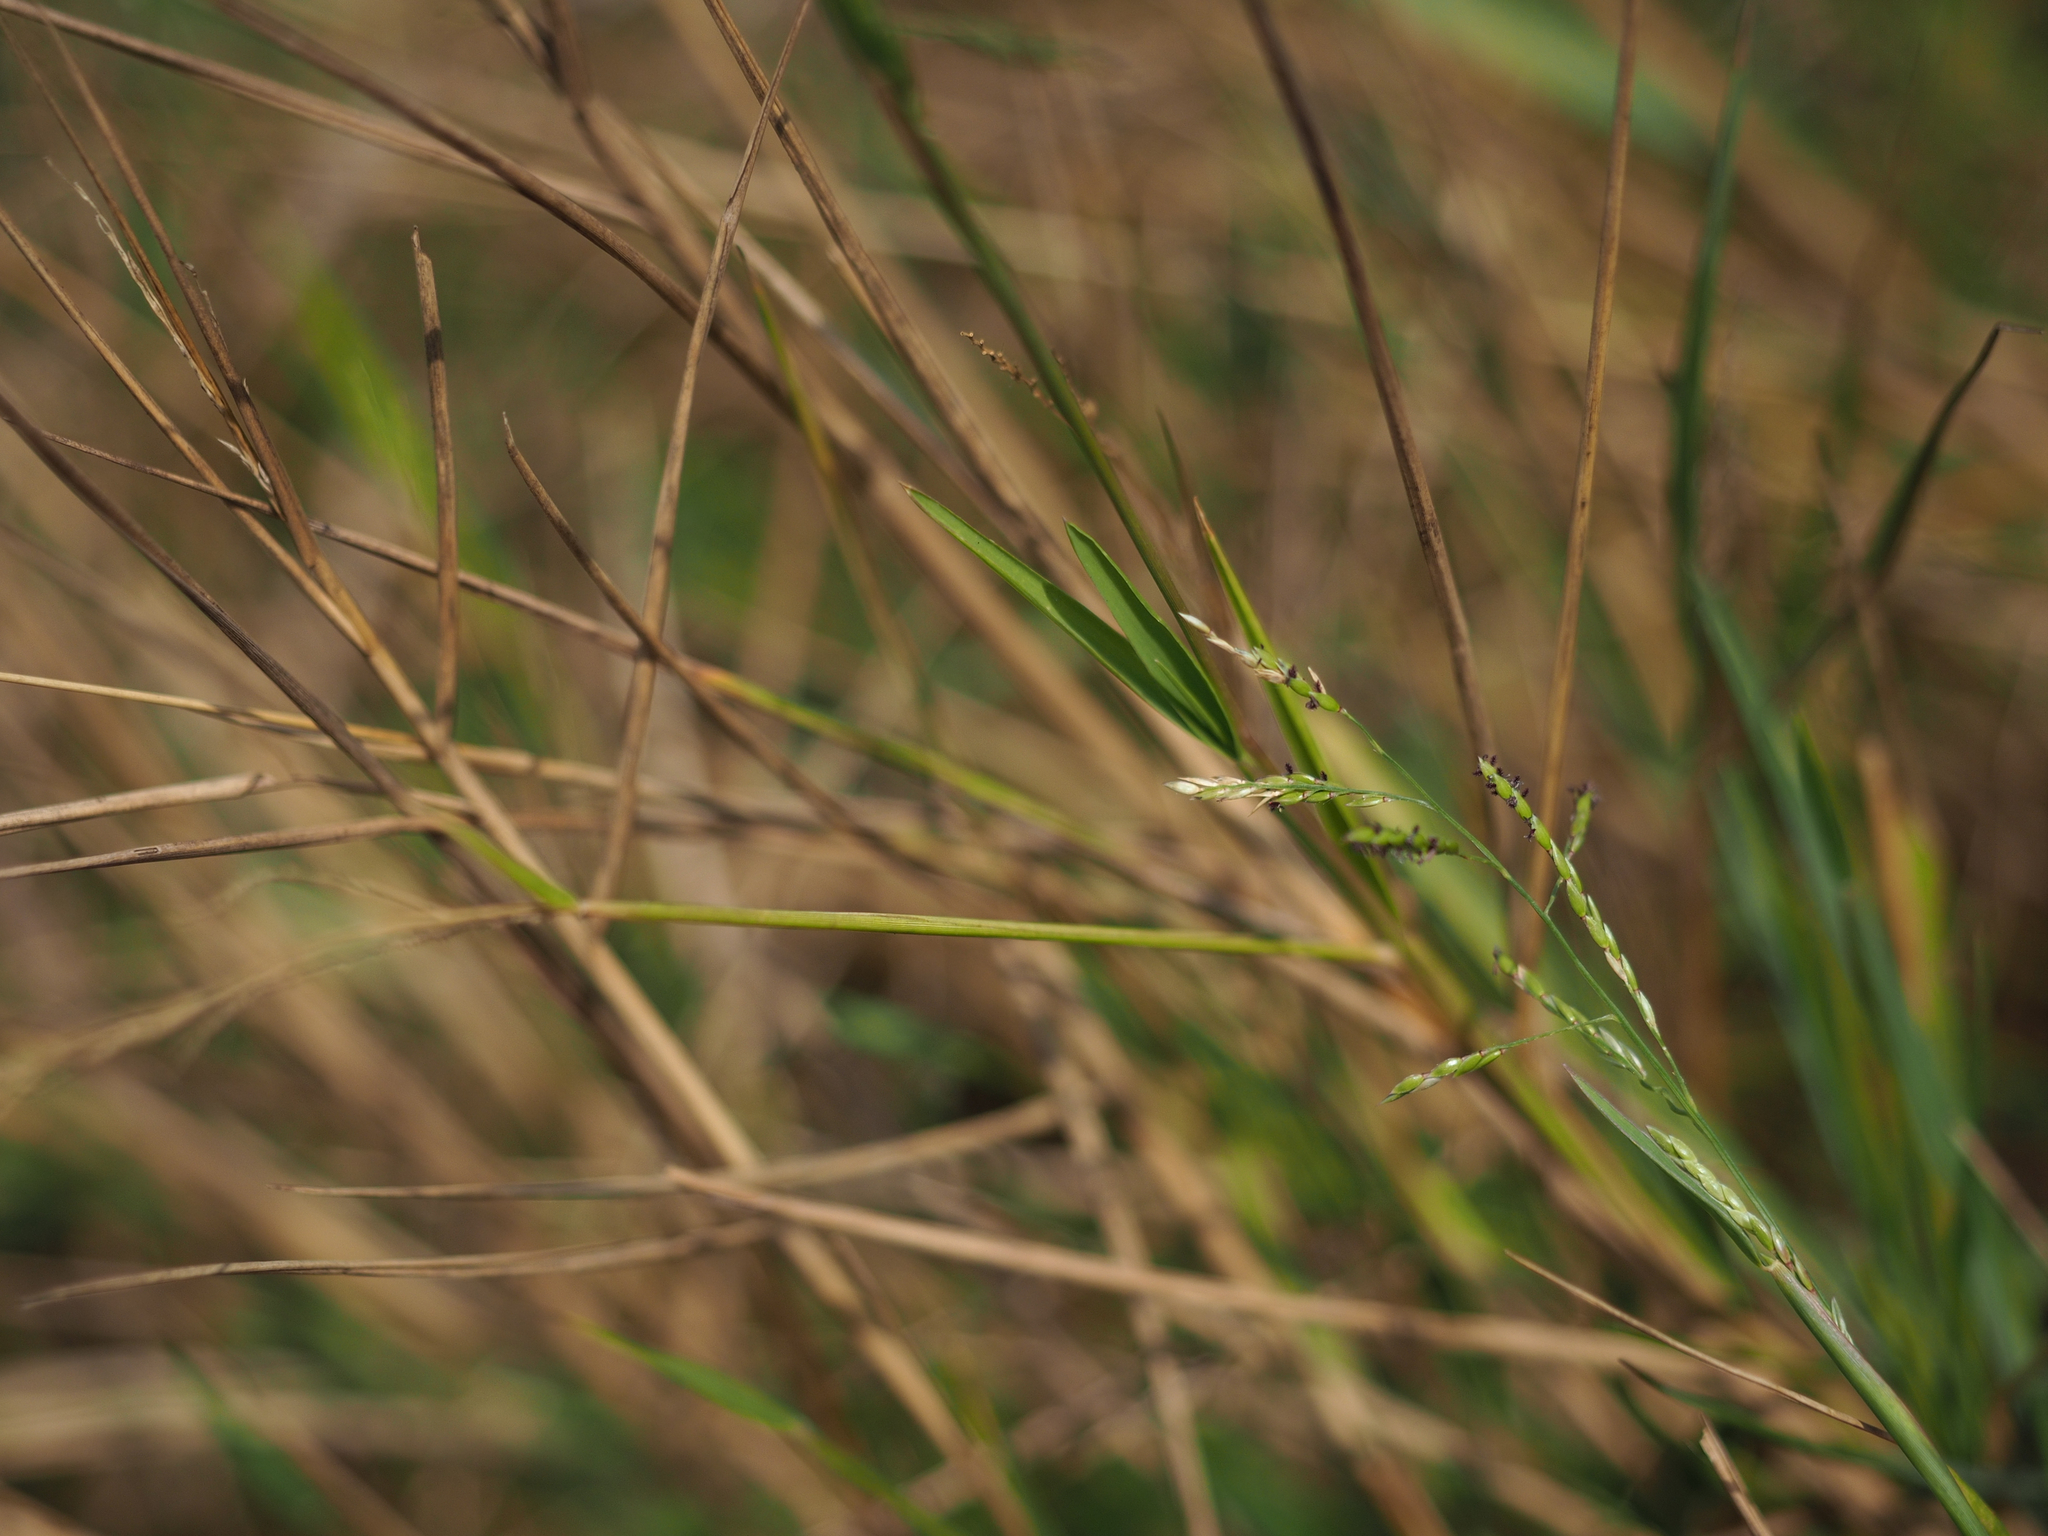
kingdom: Plantae
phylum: Tracheophyta
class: Liliopsida
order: Poales
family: Poaceae
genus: Eriochloa
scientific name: Eriochloa procera
